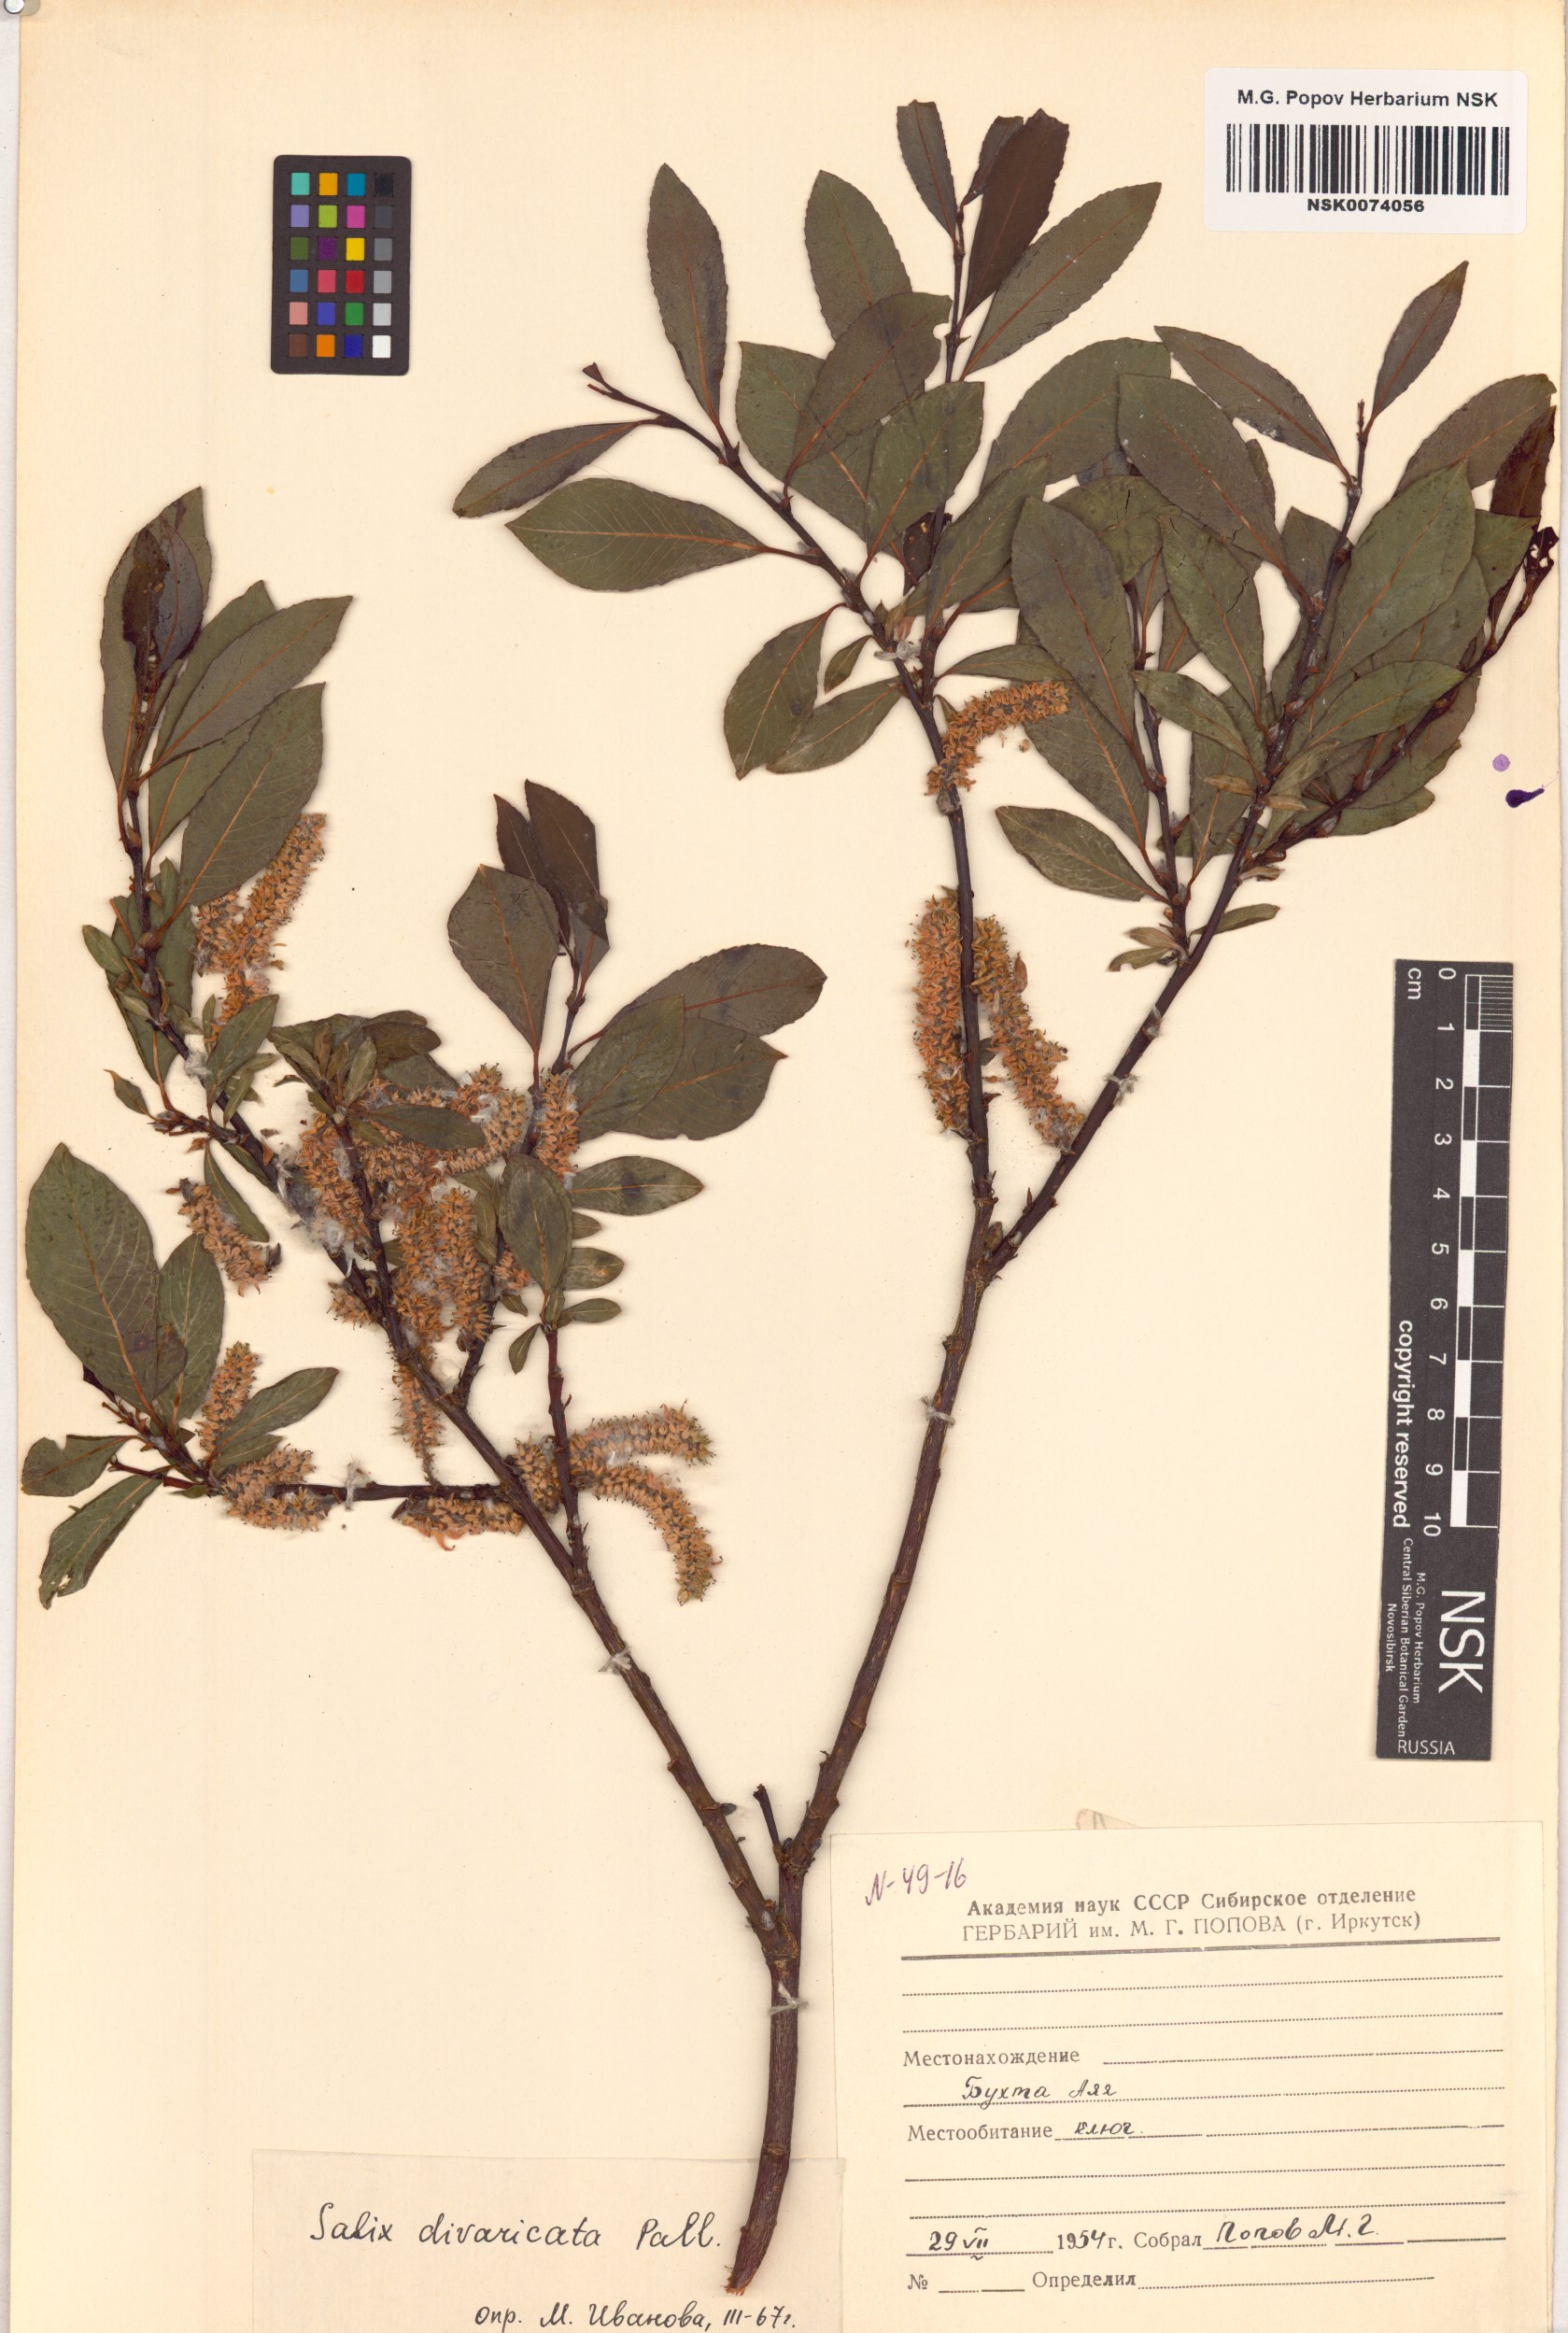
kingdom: Plantae
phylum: Tracheophyta
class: Magnoliopsida
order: Malpighiales
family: Salicaceae
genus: Salix
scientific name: Salix divaricata
